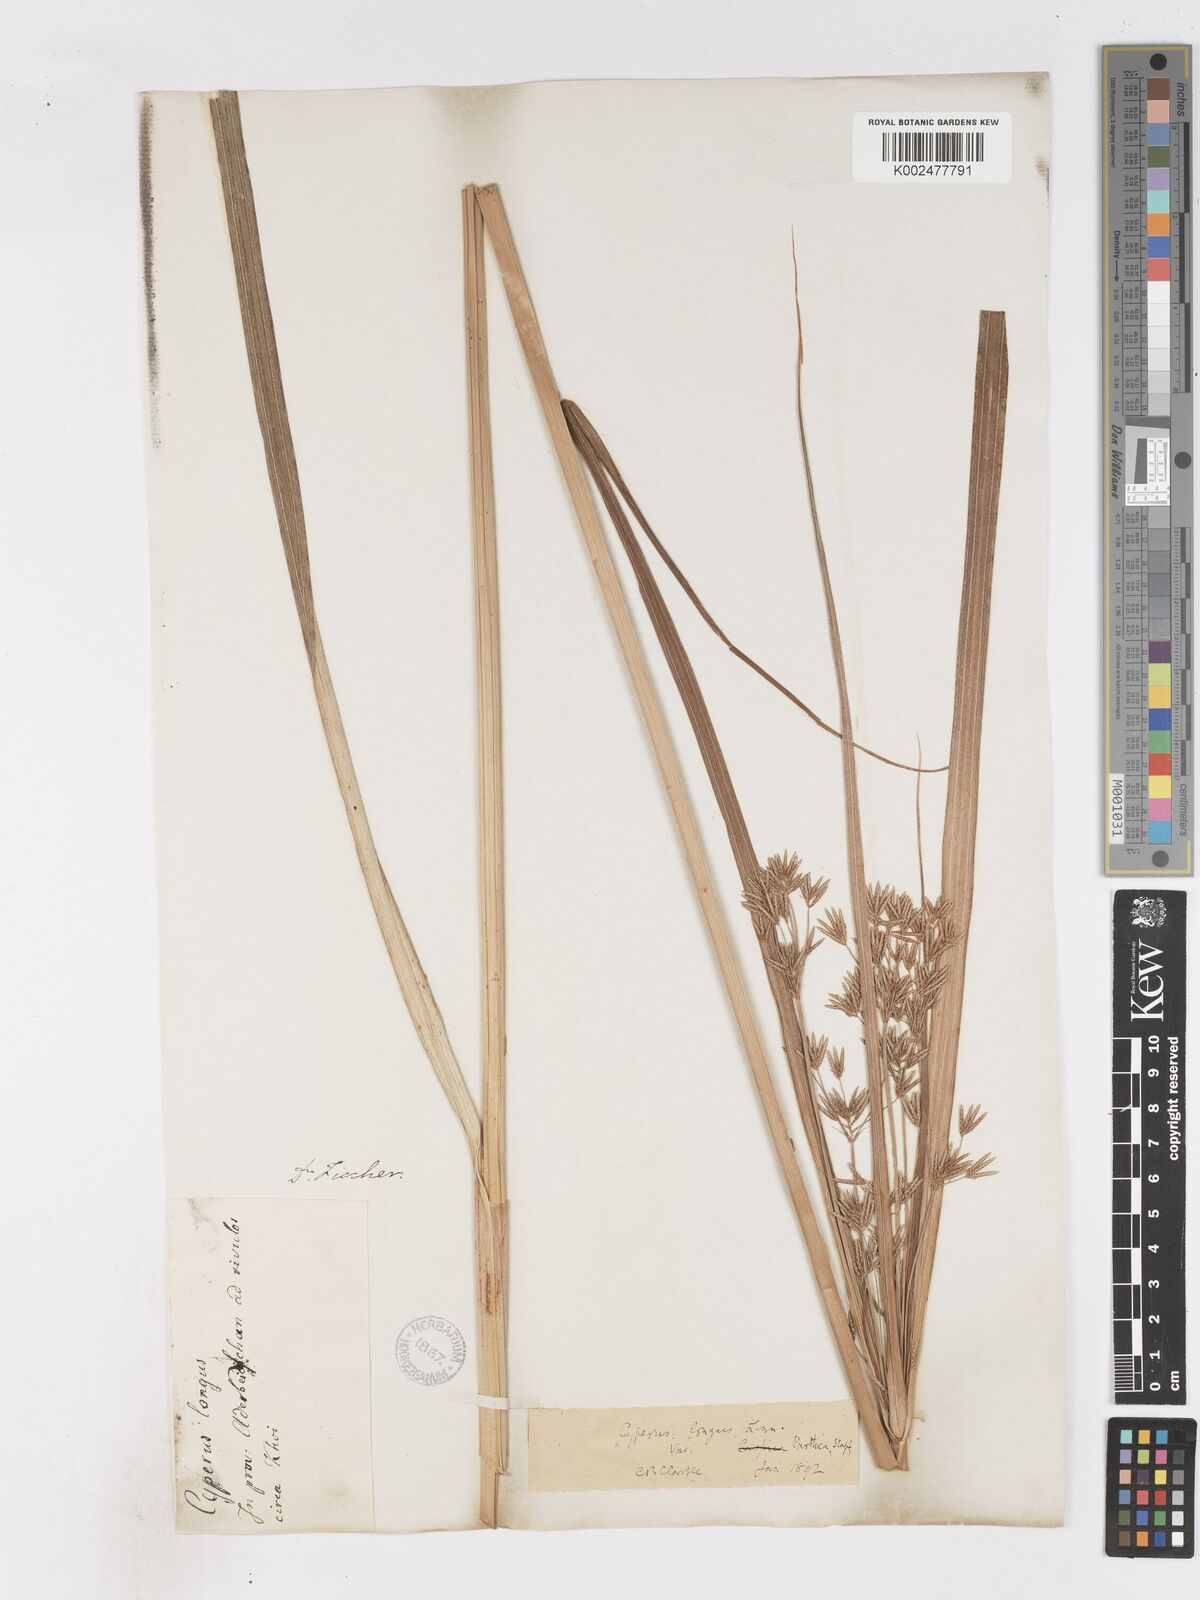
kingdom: Plantae
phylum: Tracheophyta
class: Liliopsida
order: Poales
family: Cyperaceae
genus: Cyperus
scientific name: Cyperus longus
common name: Galingale
